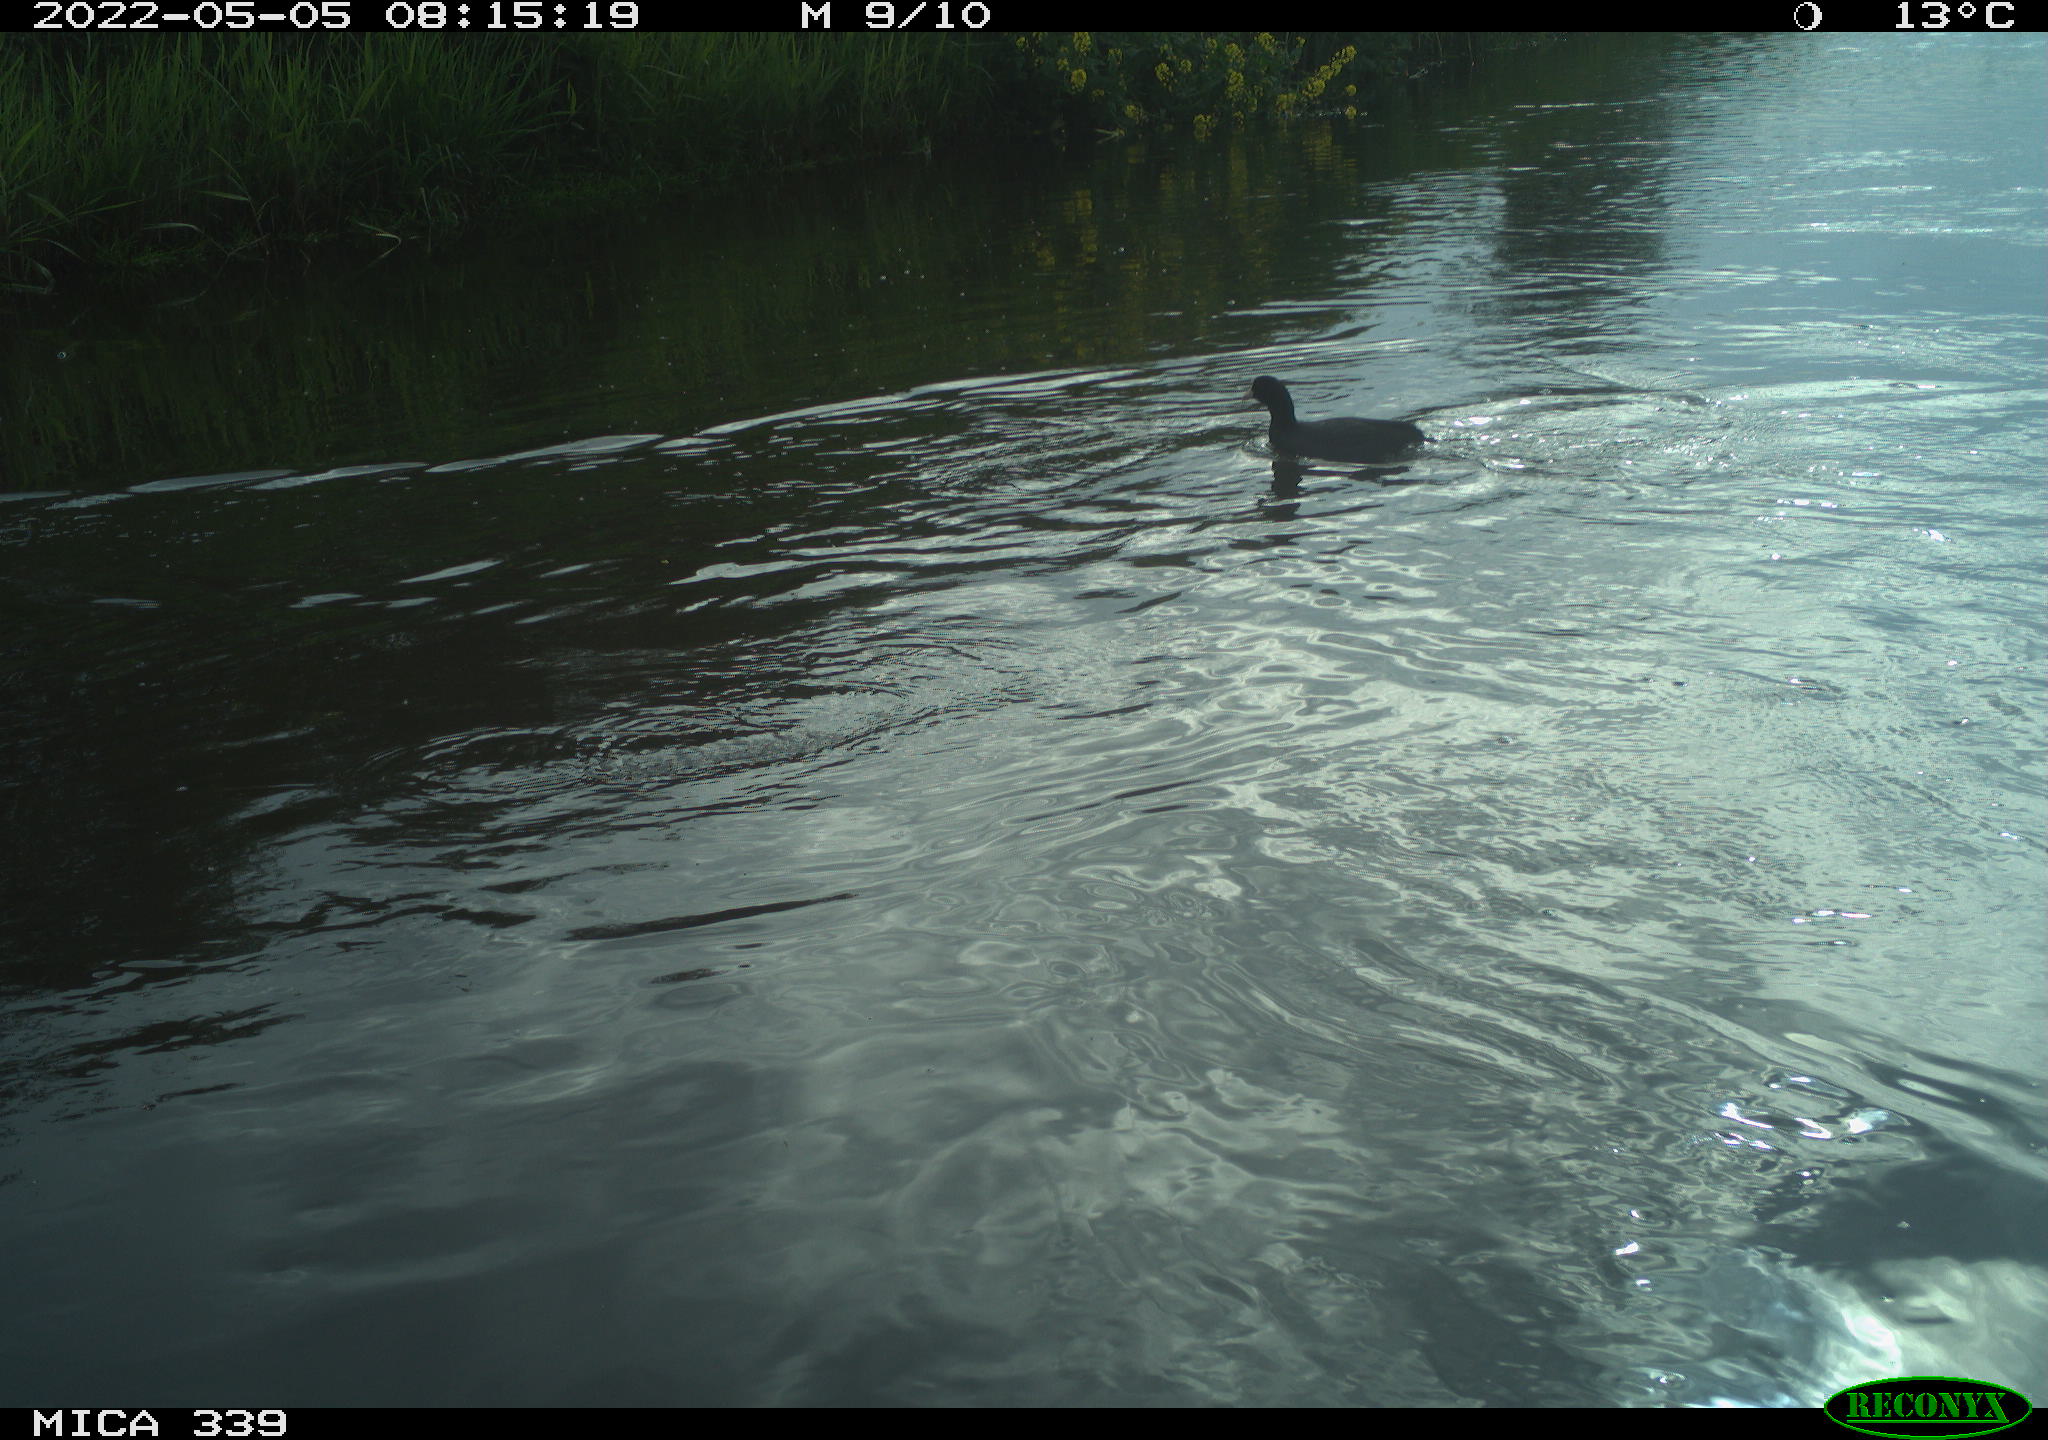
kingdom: Animalia
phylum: Chordata
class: Aves
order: Gruiformes
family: Rallidae
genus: Fulica
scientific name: Fulica atra
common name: Eurasian coot
